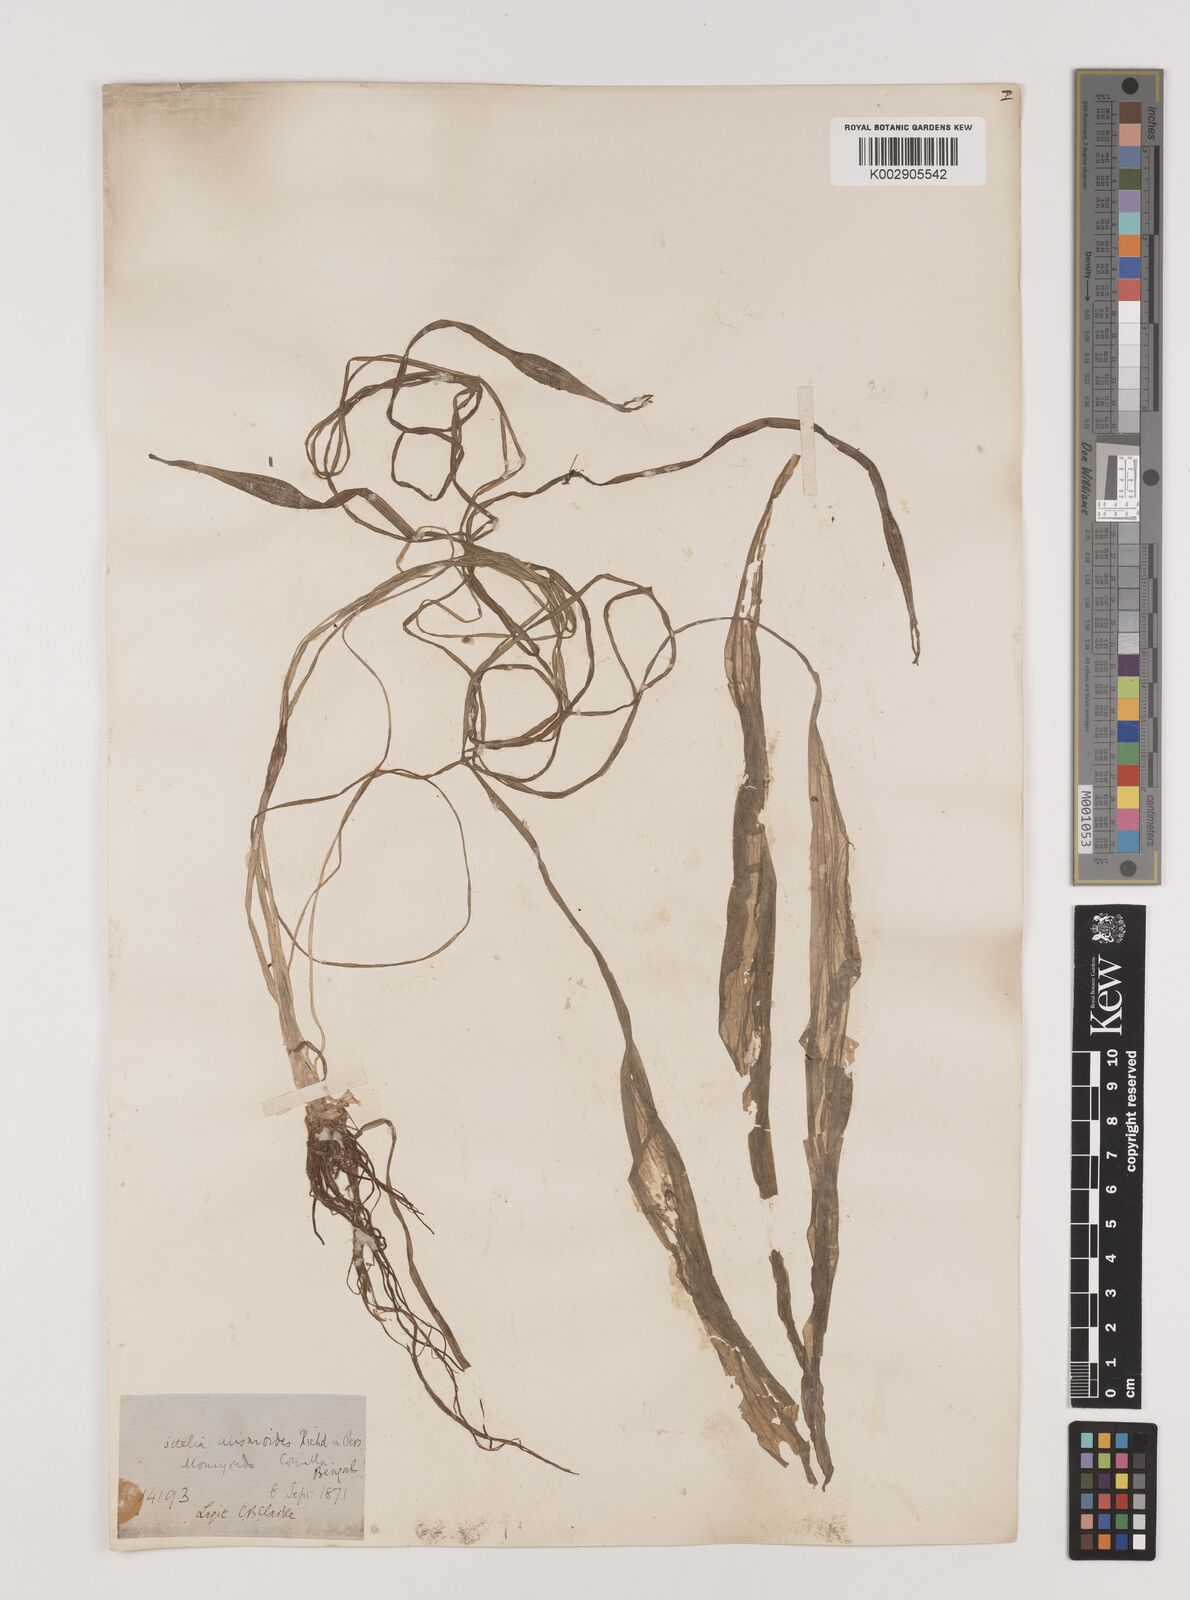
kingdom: Plantae
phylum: Tracheophyta
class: Liliopsida
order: Alismatales
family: Hydrocharitaceae
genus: Ottelia
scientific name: Ottelia alismoides
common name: Duck-lettuce
